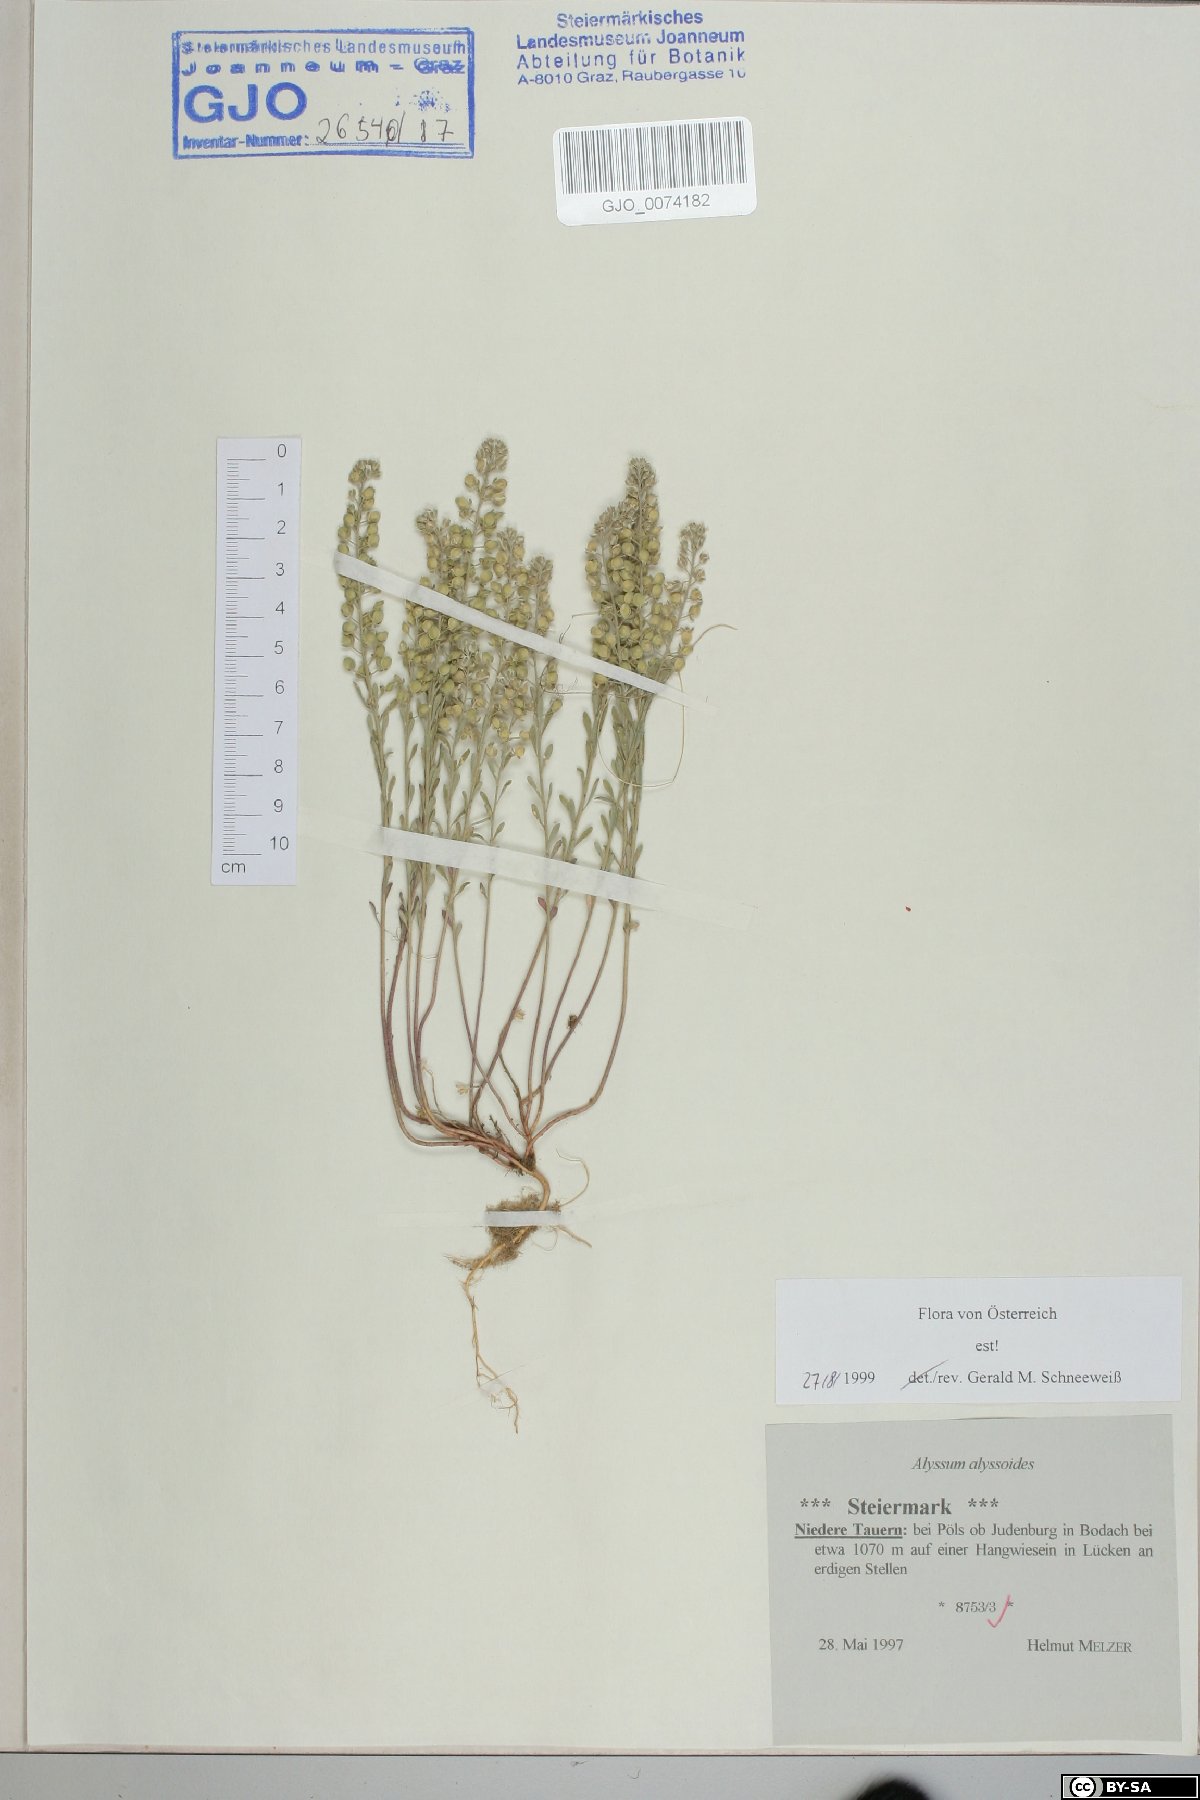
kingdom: Plantae
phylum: Tracheophyta
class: Magnoliopsida
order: Brassicales
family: Brassicaceae
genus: Alyssum
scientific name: Alyssum alyssoides
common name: Small alison
